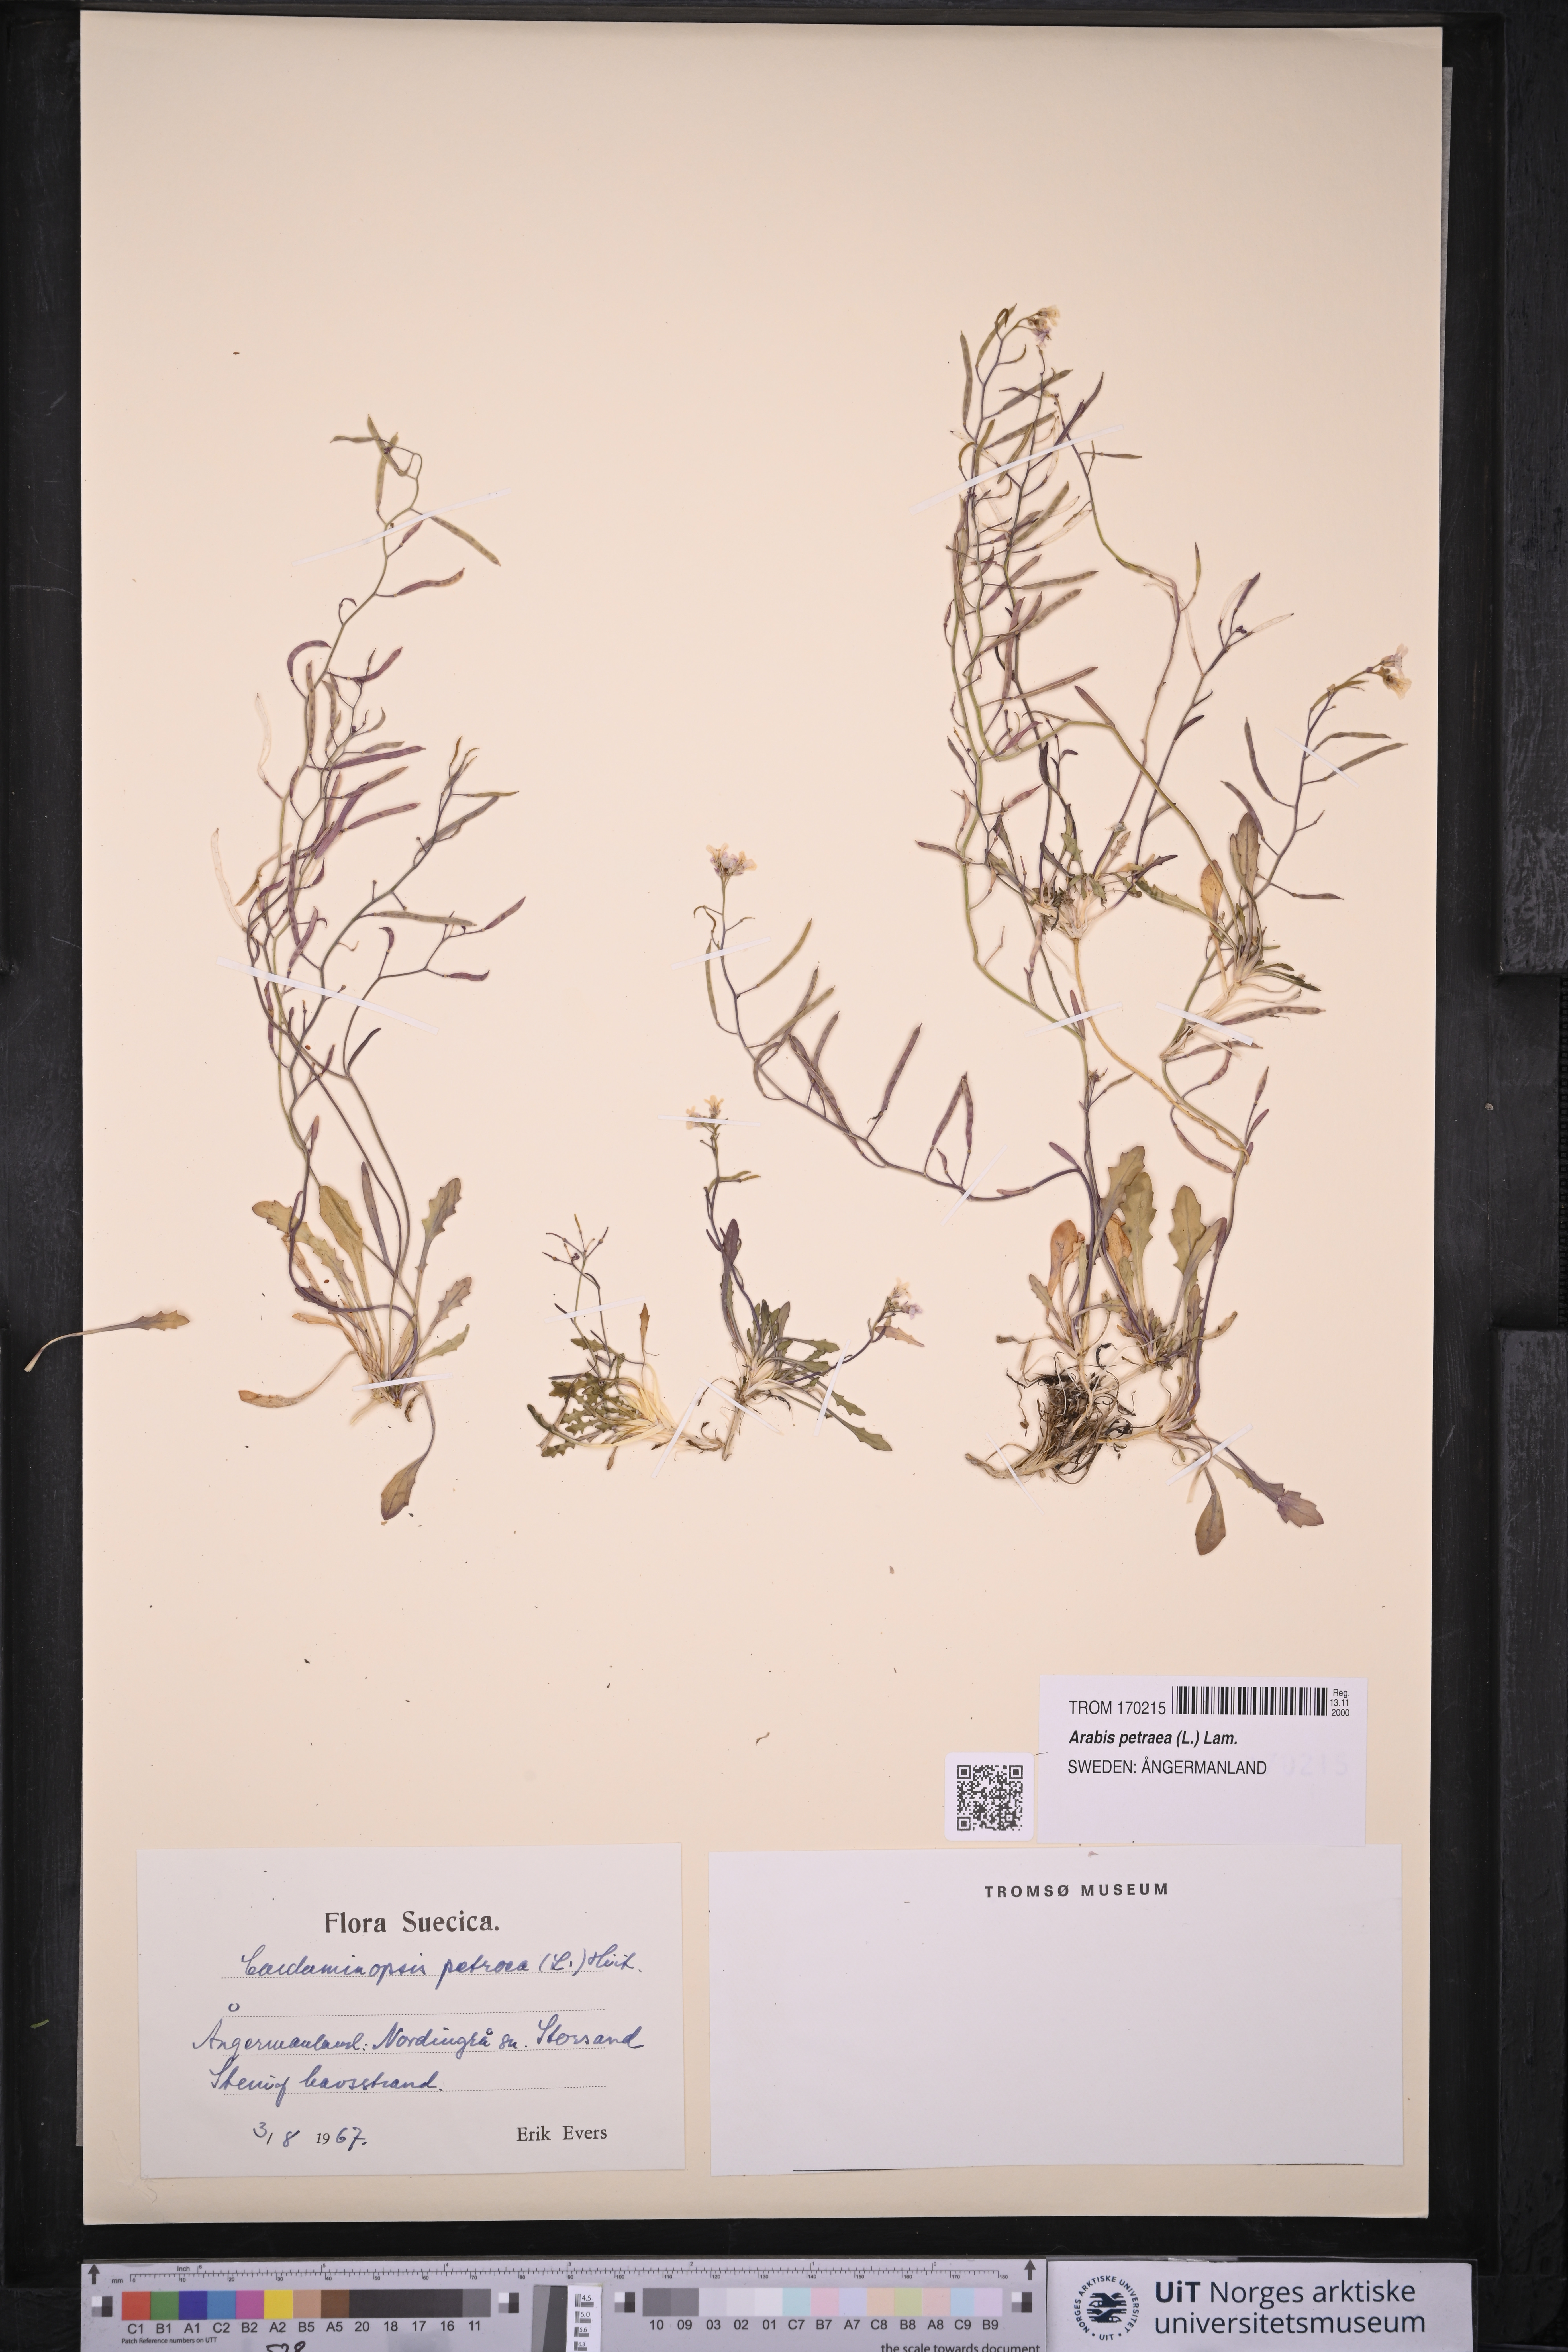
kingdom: Plantae
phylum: Tracheophyta
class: Magnoliopsida
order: Brassicales
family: Brassicaceae
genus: Arabidopsis
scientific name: Arabidopsis petraea
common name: Northern rock-cress
